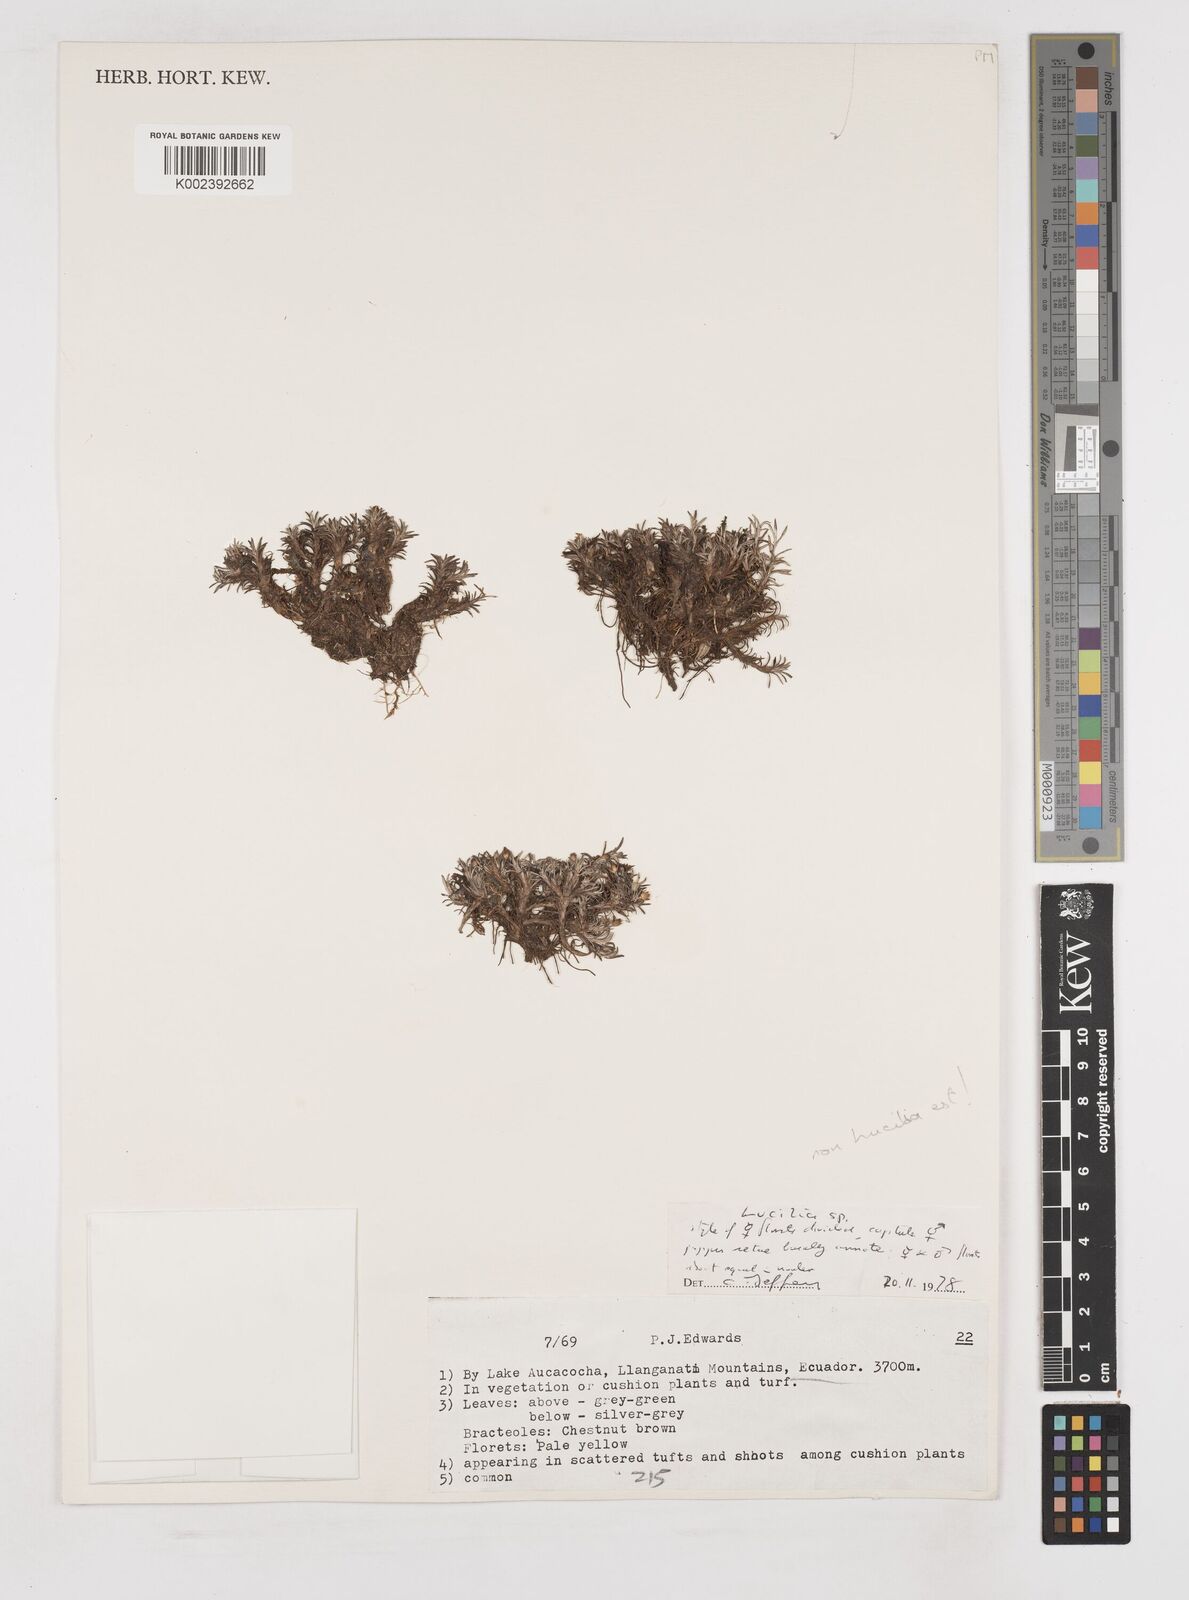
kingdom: Plantae
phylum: Tracheophyta
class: Magnoliopsida
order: Asterales
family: Asteraceae
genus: Gnaphalium
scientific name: Gnaphalium
